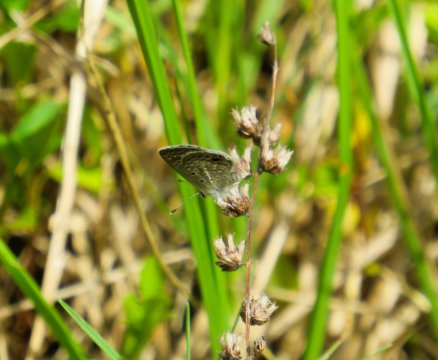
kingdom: Animalia
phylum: Arthropoda
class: Insecta
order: Lepidoptera
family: Lycaenidae
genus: Hemiargus
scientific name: Hemiargus ceraunus
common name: Ceraunus Blue
